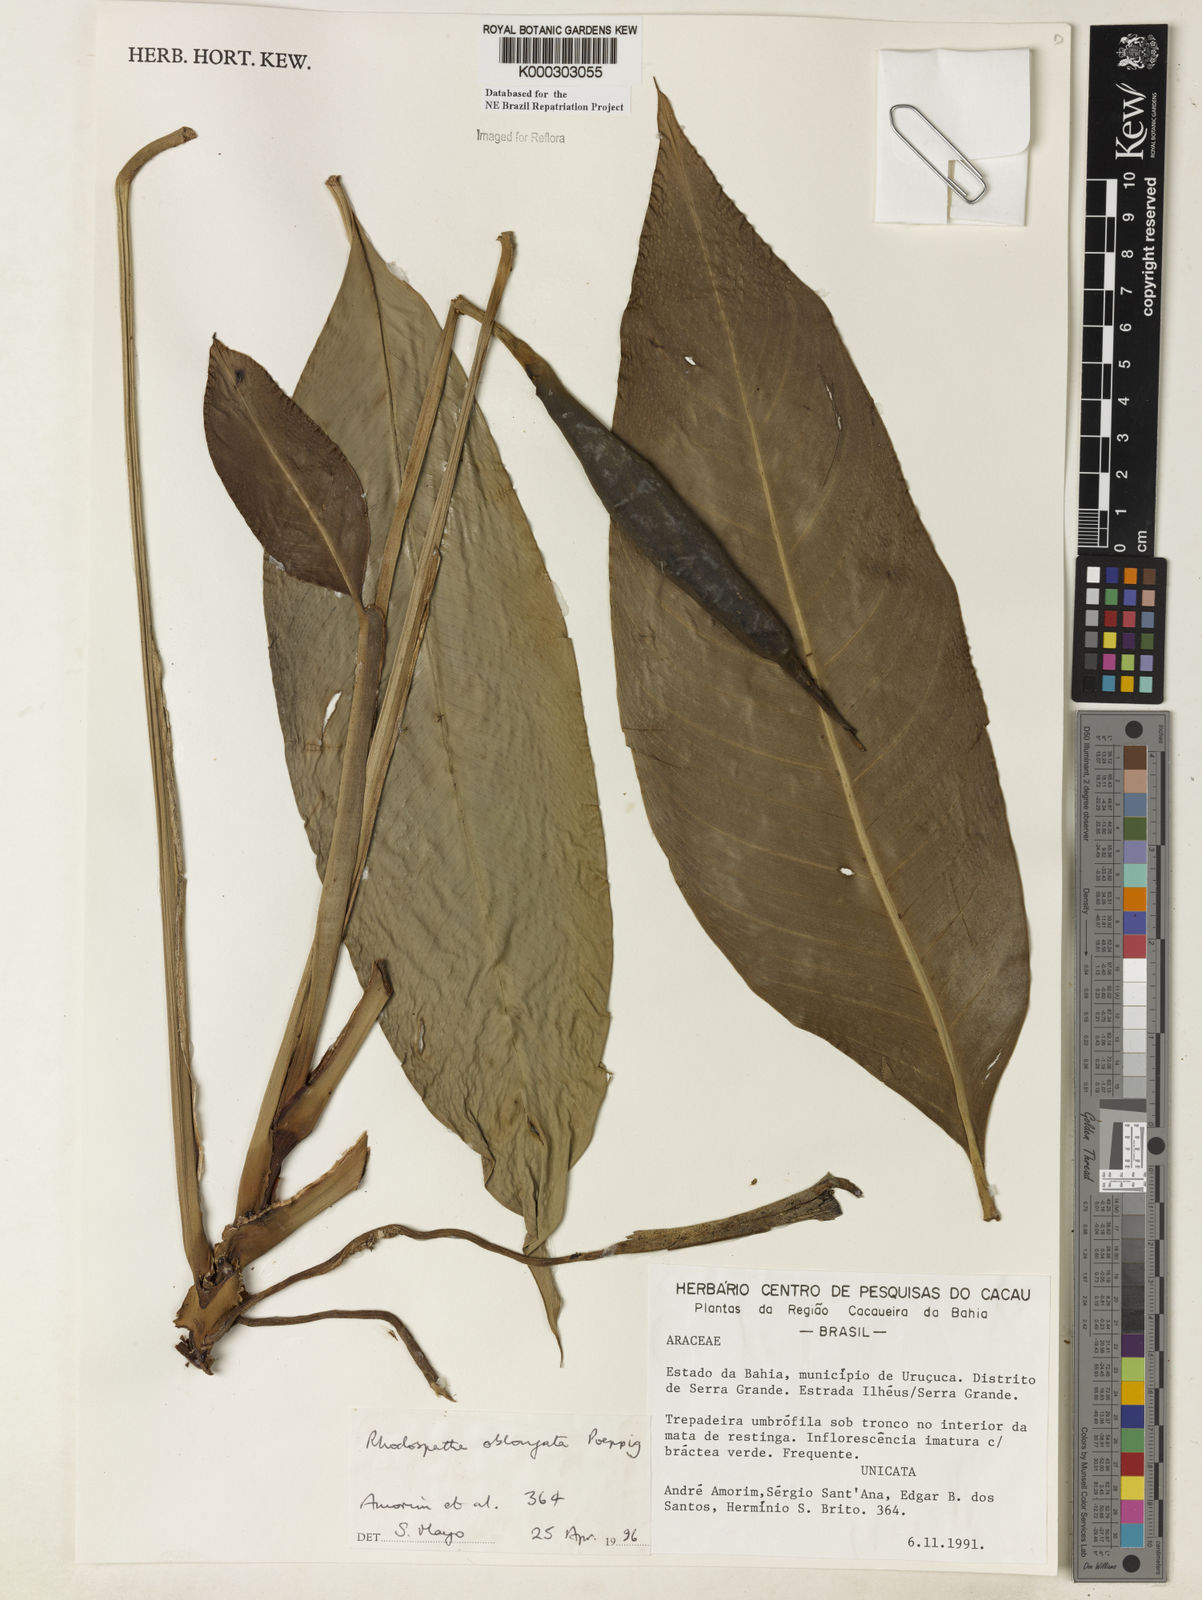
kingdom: Plantae
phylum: Tracheophyta
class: Liliopsida
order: Alismatales
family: Araceae
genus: Rhodospatha
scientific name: Rhodospatha oblongata
